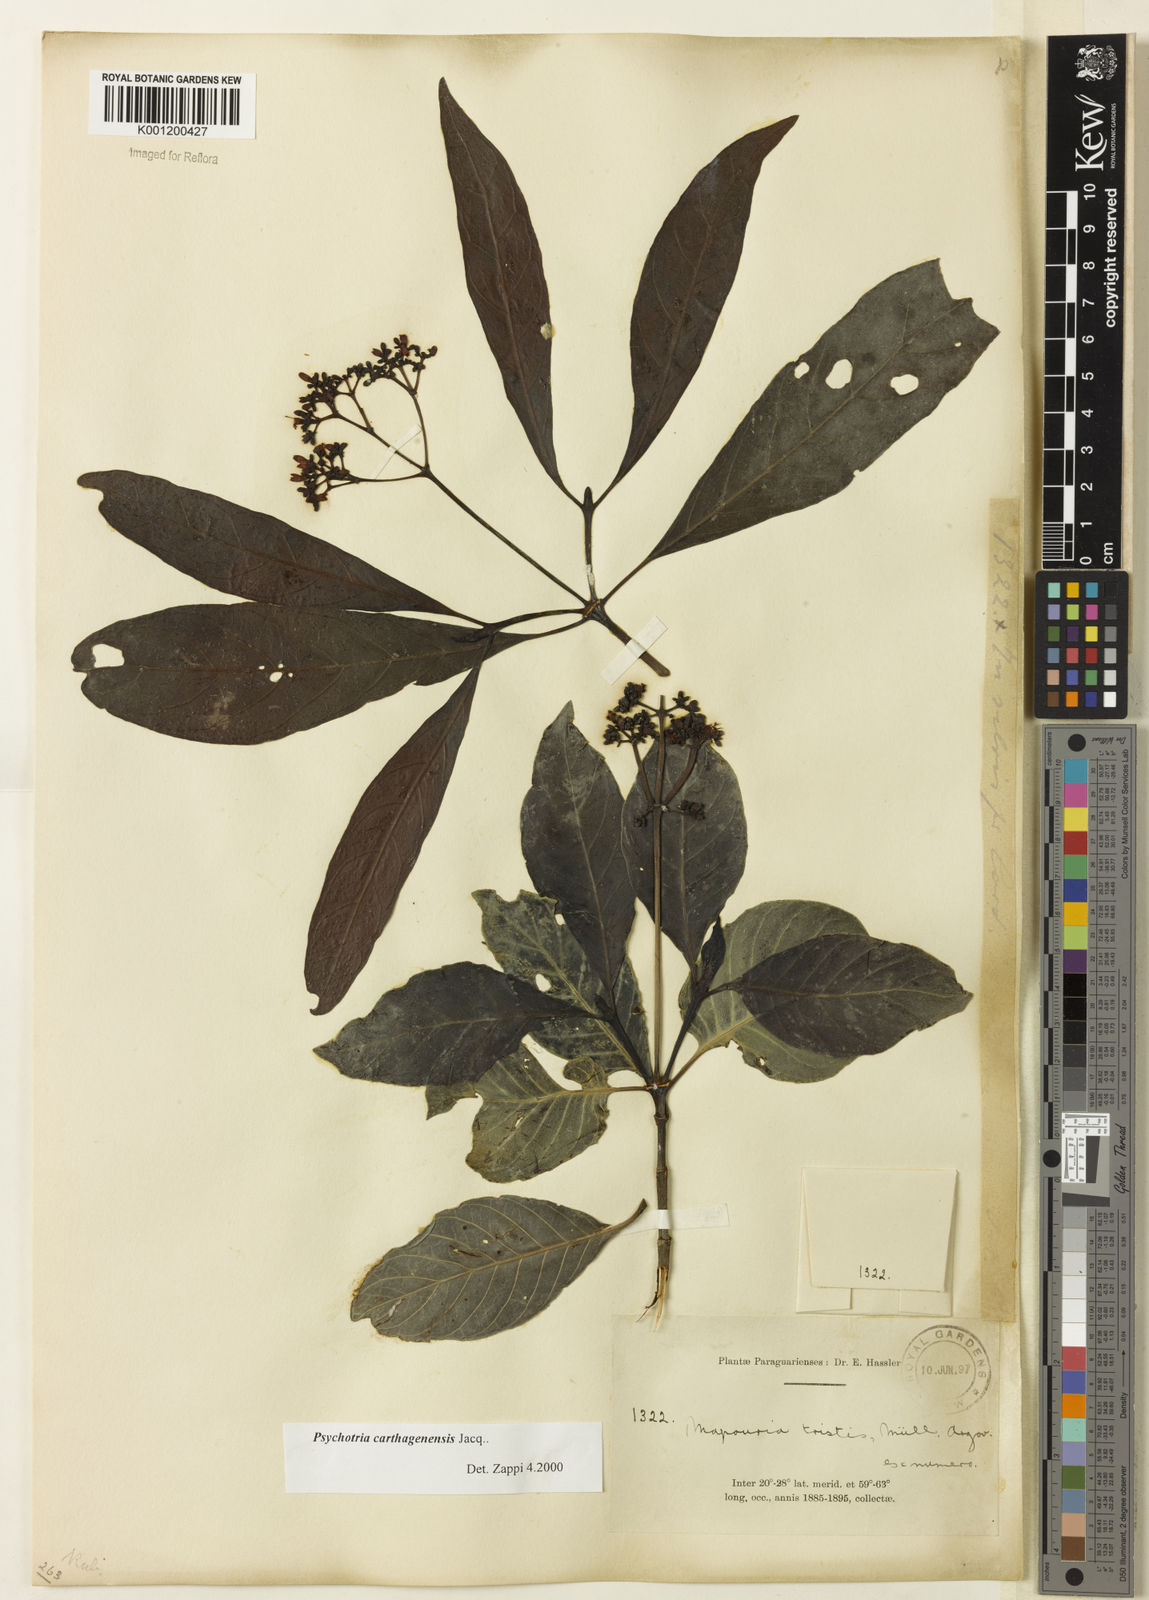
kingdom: Plantae
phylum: Tracheophyta
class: Magnoliopsida
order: Gentianales
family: Rubiaceae
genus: Psychotria
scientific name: Psychotria carthagenensis
